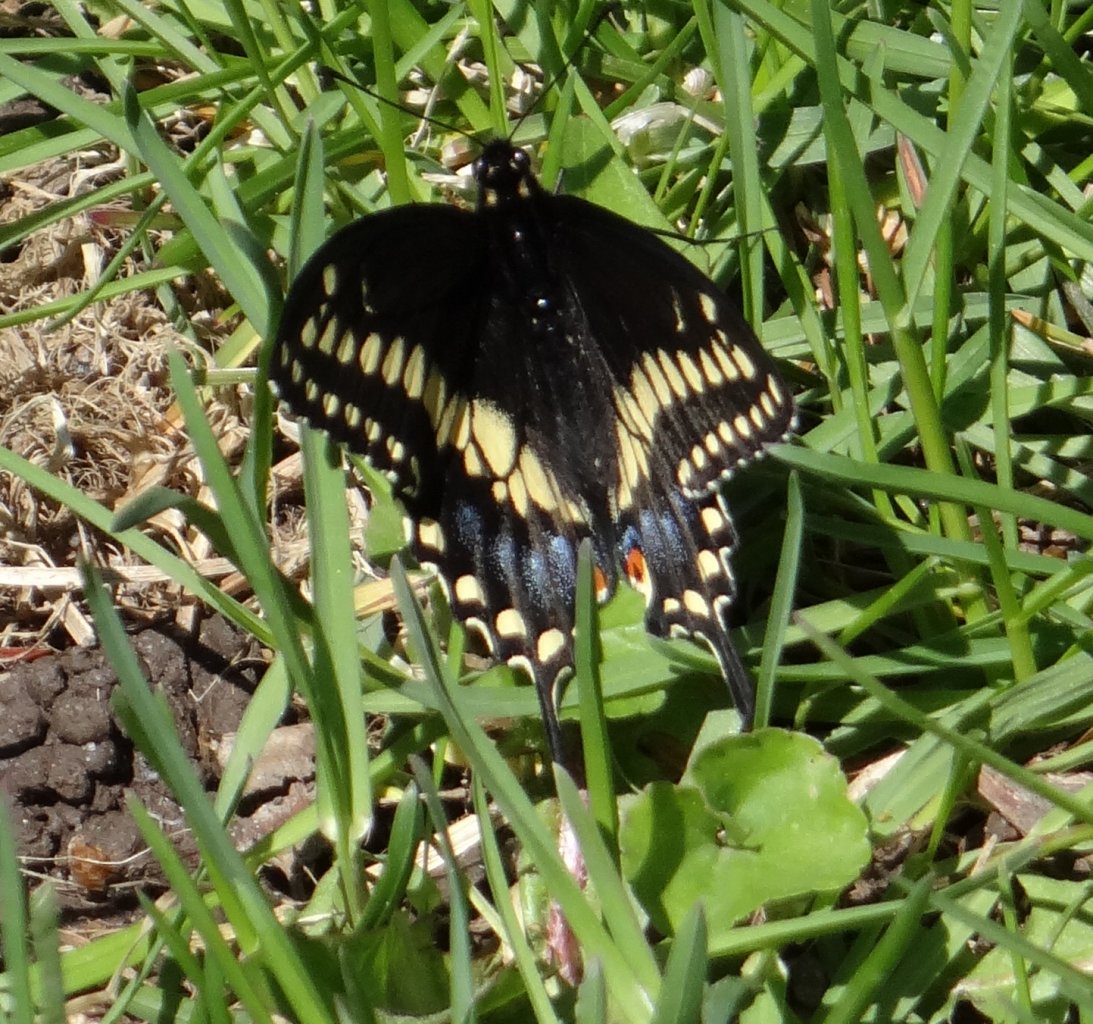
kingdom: Animalia
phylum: Arthropoda
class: Insecta
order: Lepidoptera
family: Papilionidae
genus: Papilio
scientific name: Papilio polyxenes
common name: Black Swallowtail
